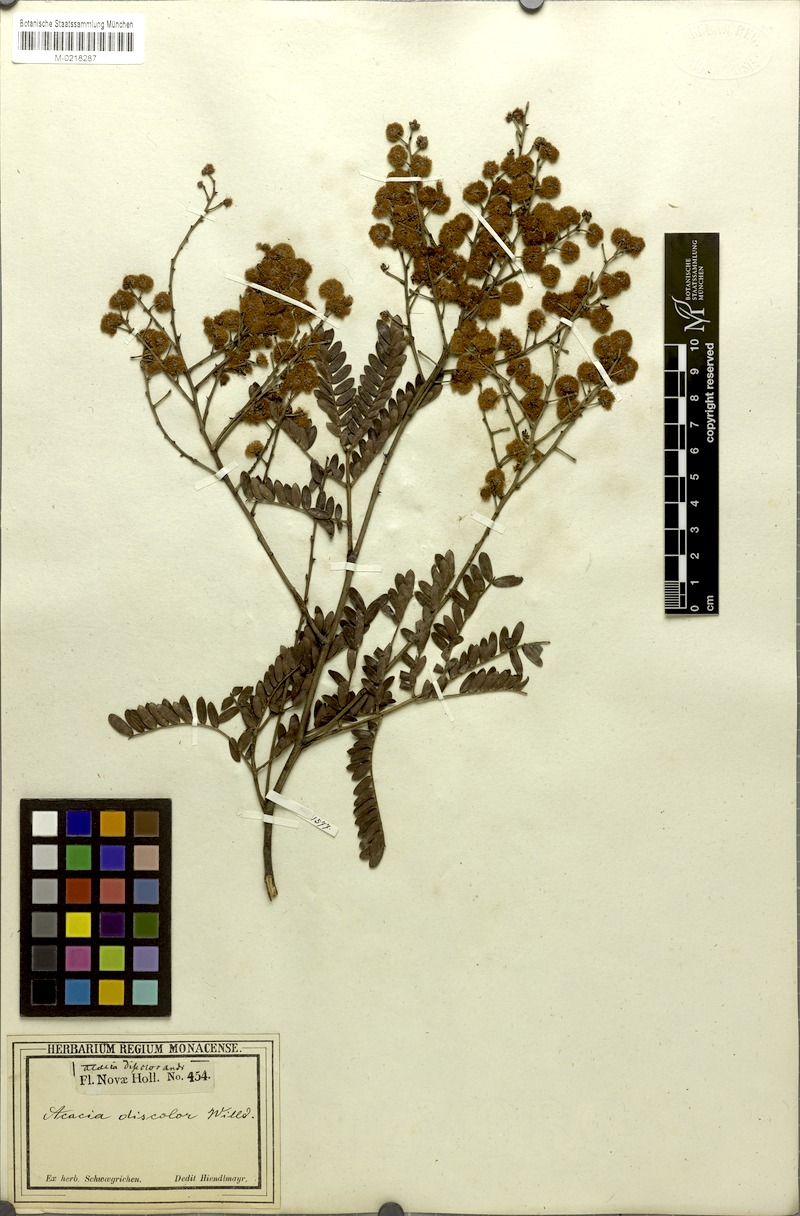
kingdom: Plantae
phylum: Tracheophyta
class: Magnoliopsida
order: Fabales
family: Fabaceae
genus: Acacia
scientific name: Acacia terminalis
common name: Cedar wattle
